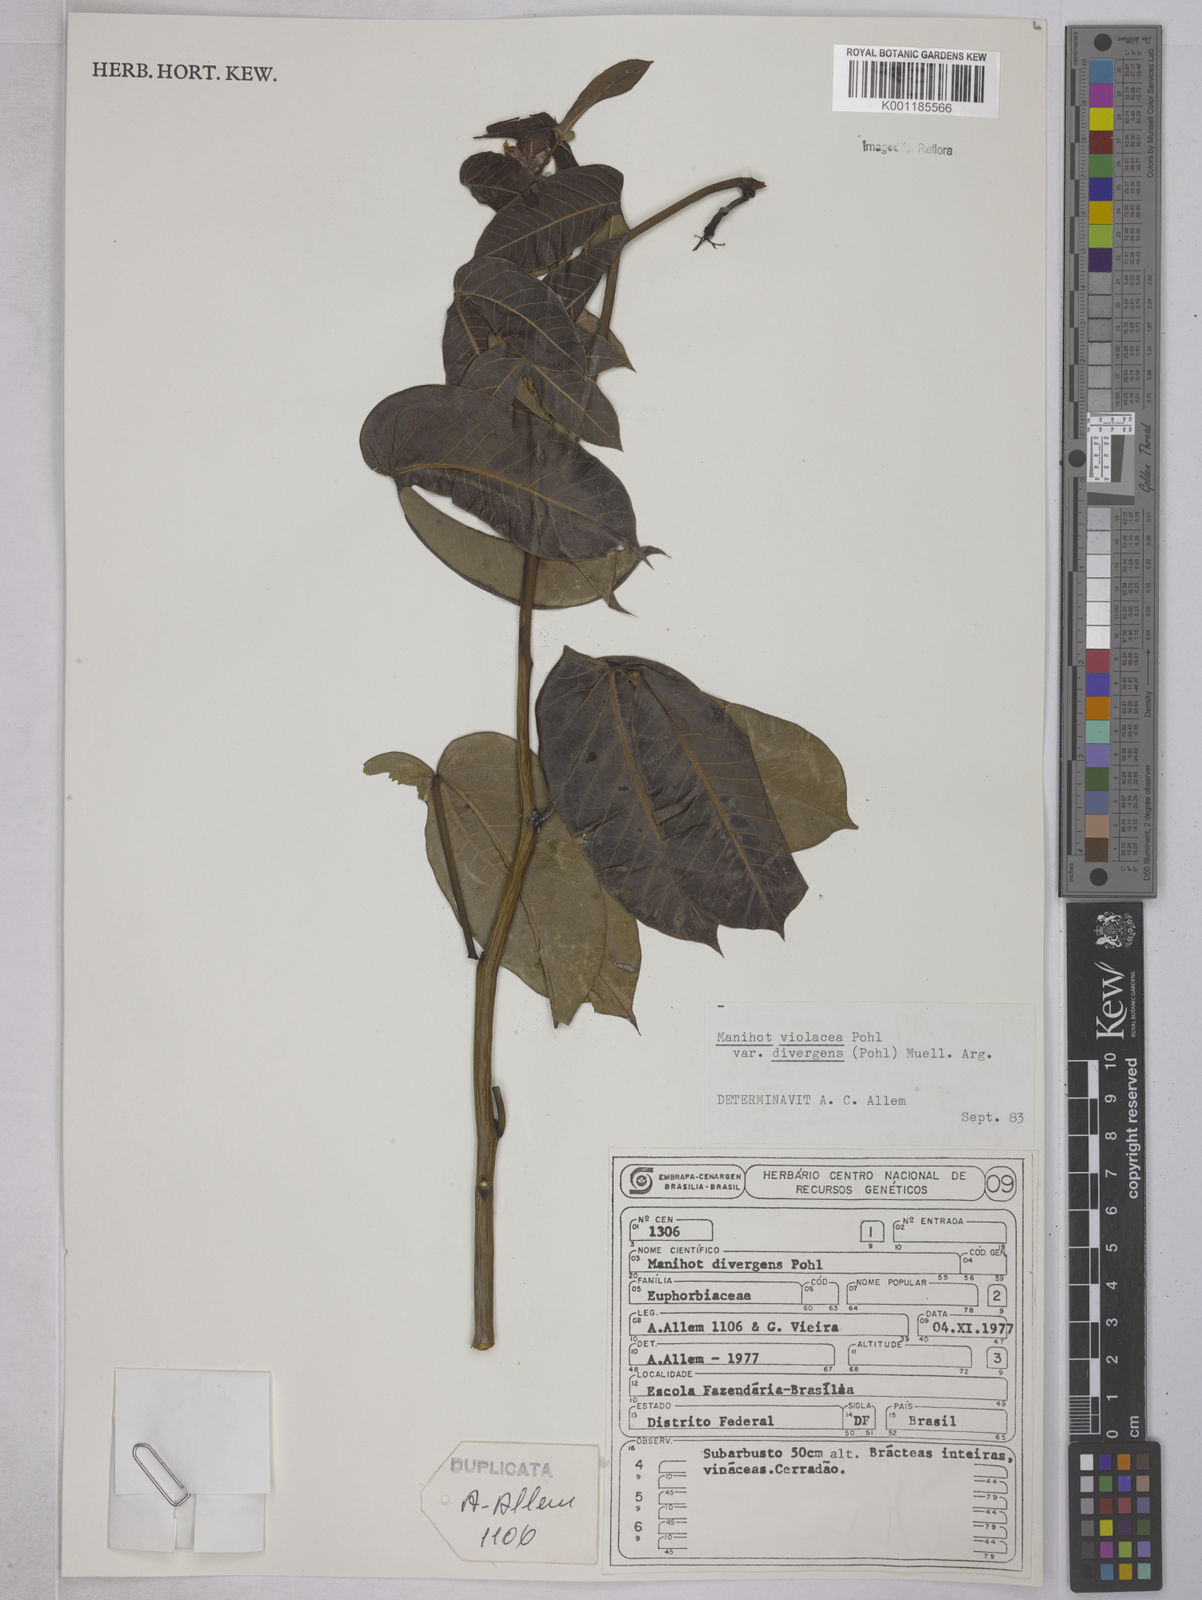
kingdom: Plantae
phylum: Tracheophyta
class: Magnoliopsida
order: Malpighiales
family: Euphorbiaceae
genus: Manihot
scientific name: Manihot divergens
